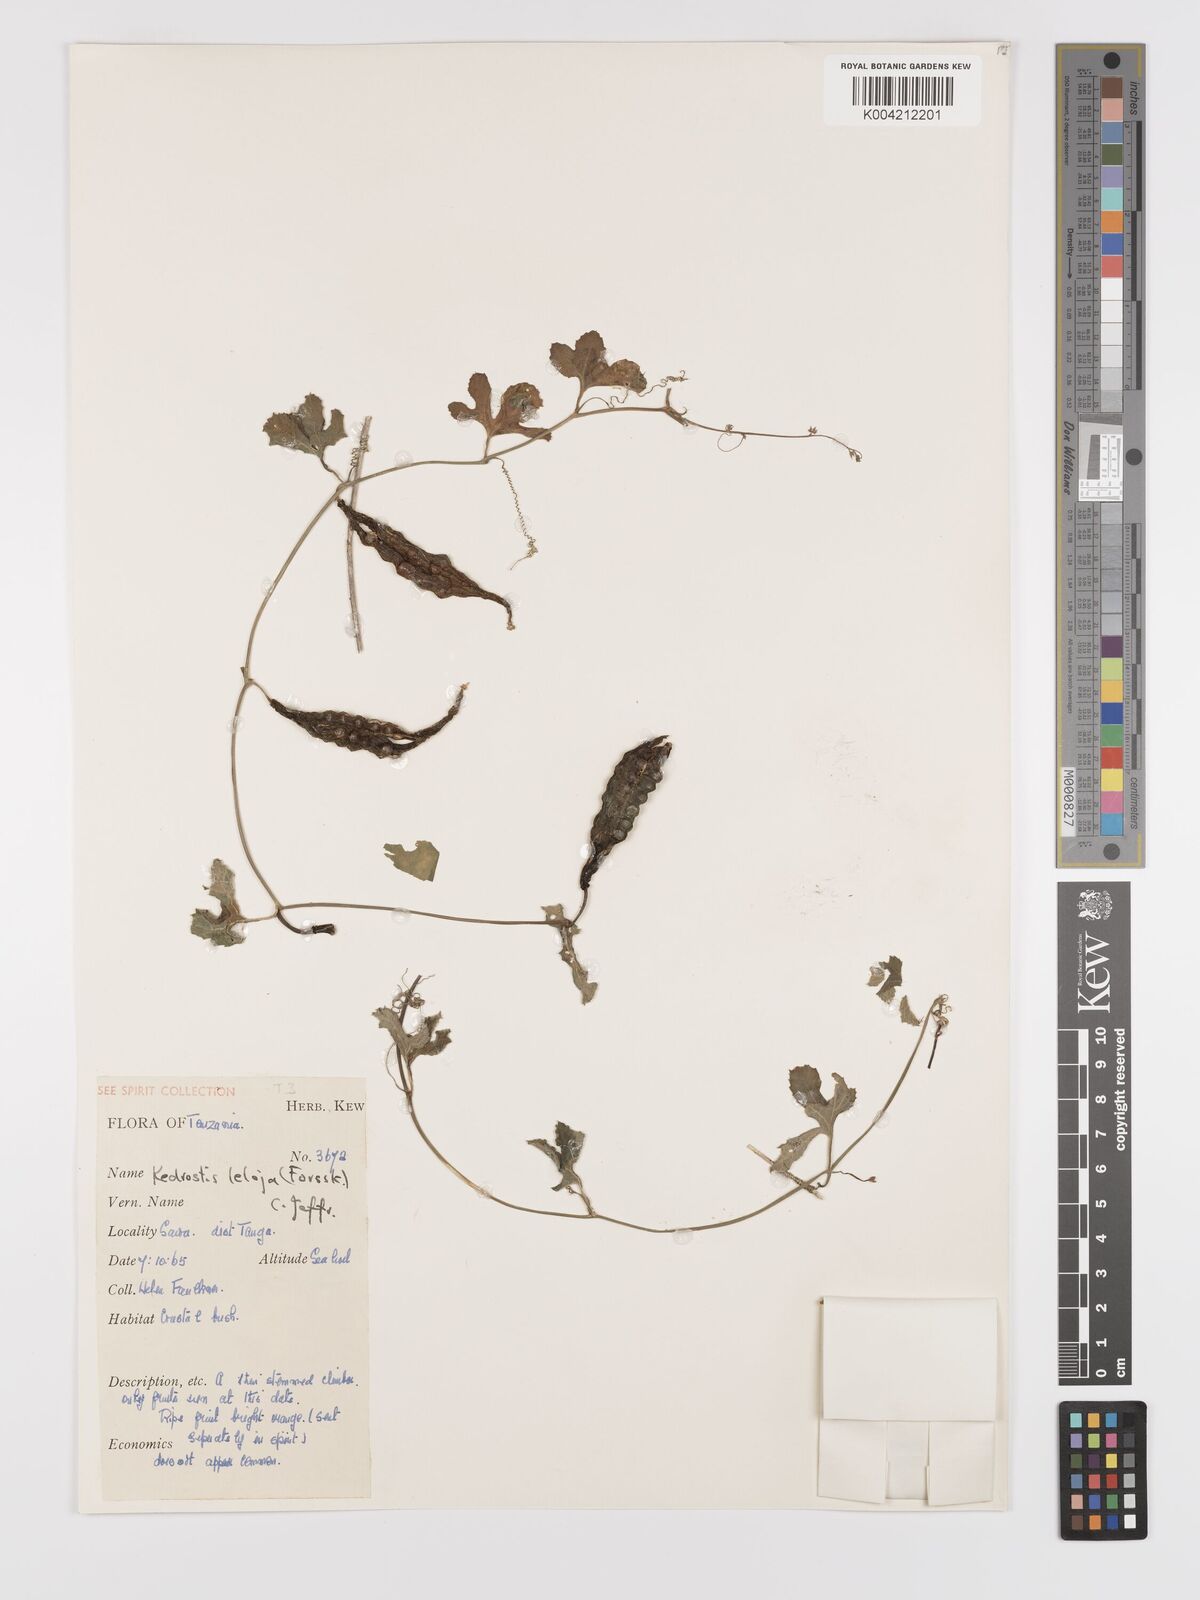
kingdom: Plantae
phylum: Tracheophyta
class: Magnoliopsida
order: Cucurbitales
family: Cucurbitaceae
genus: Kedrostis
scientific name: Kedrostis abdallae
